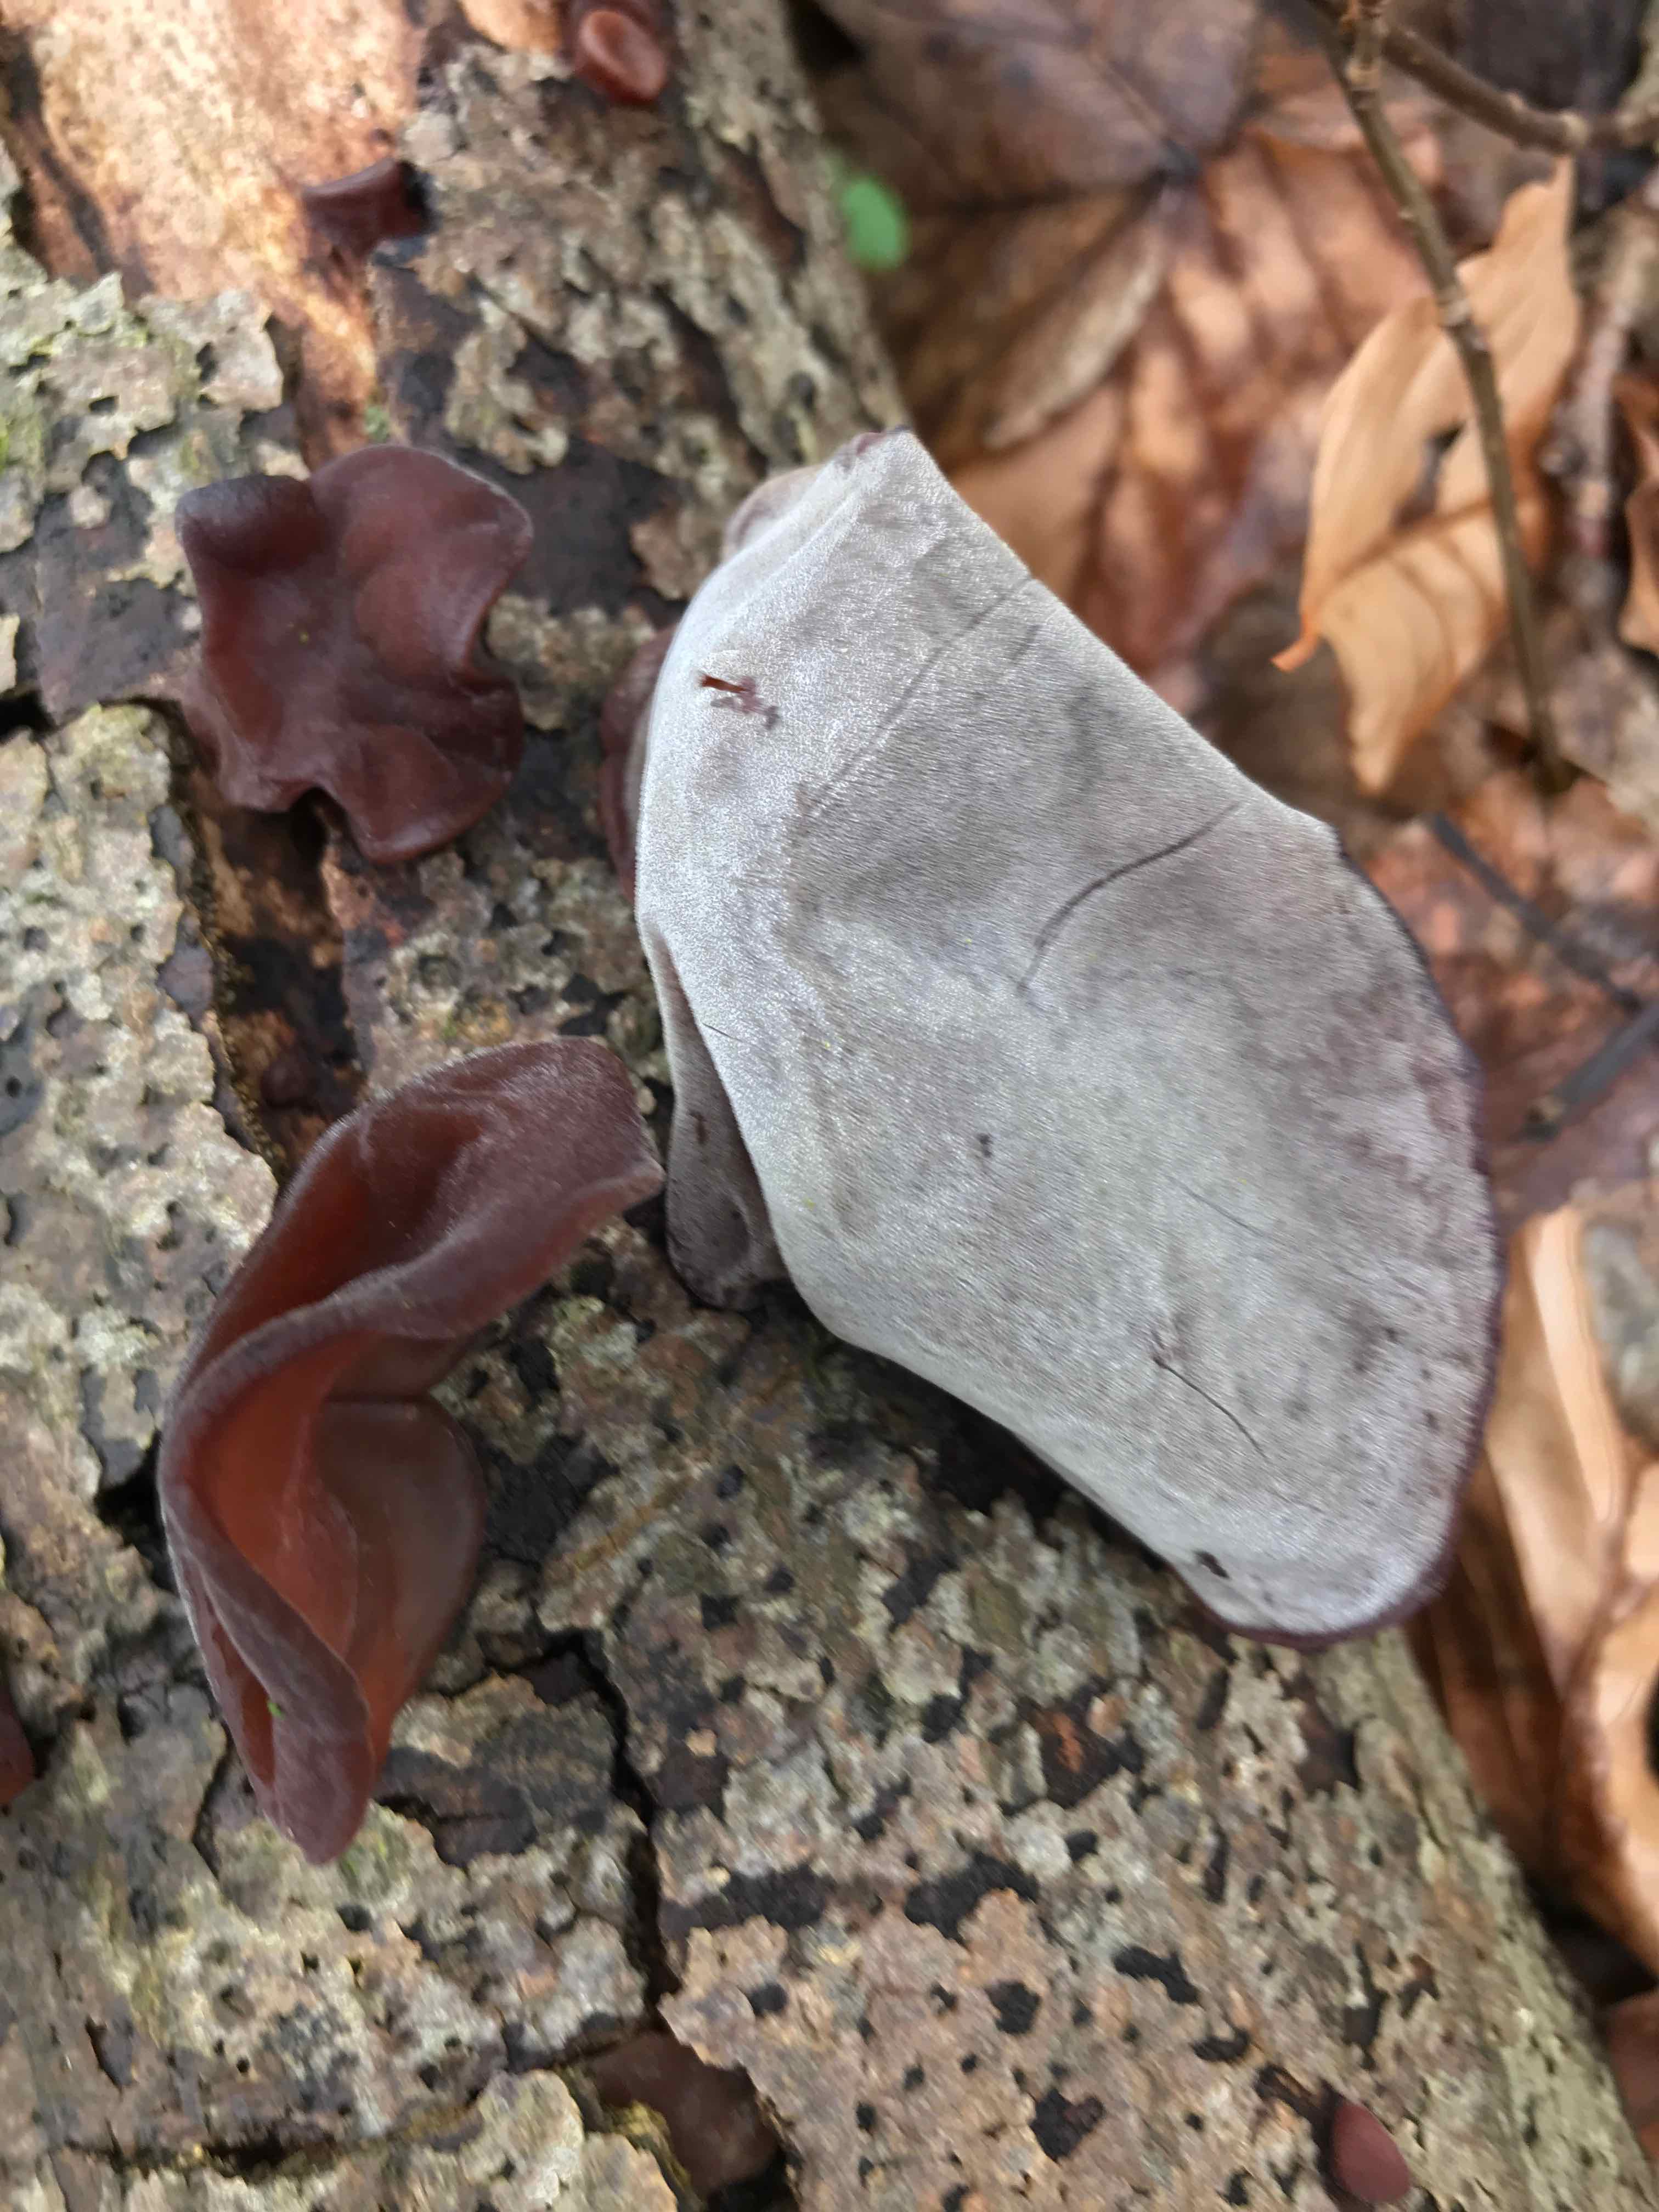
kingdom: Fungi
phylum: Basidiomycota
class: Agaricomycetes
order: Auriculariales
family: Auriculariaceae
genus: Auricularia
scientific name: Auricularia auricula-judae
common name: almindelig judasøre
